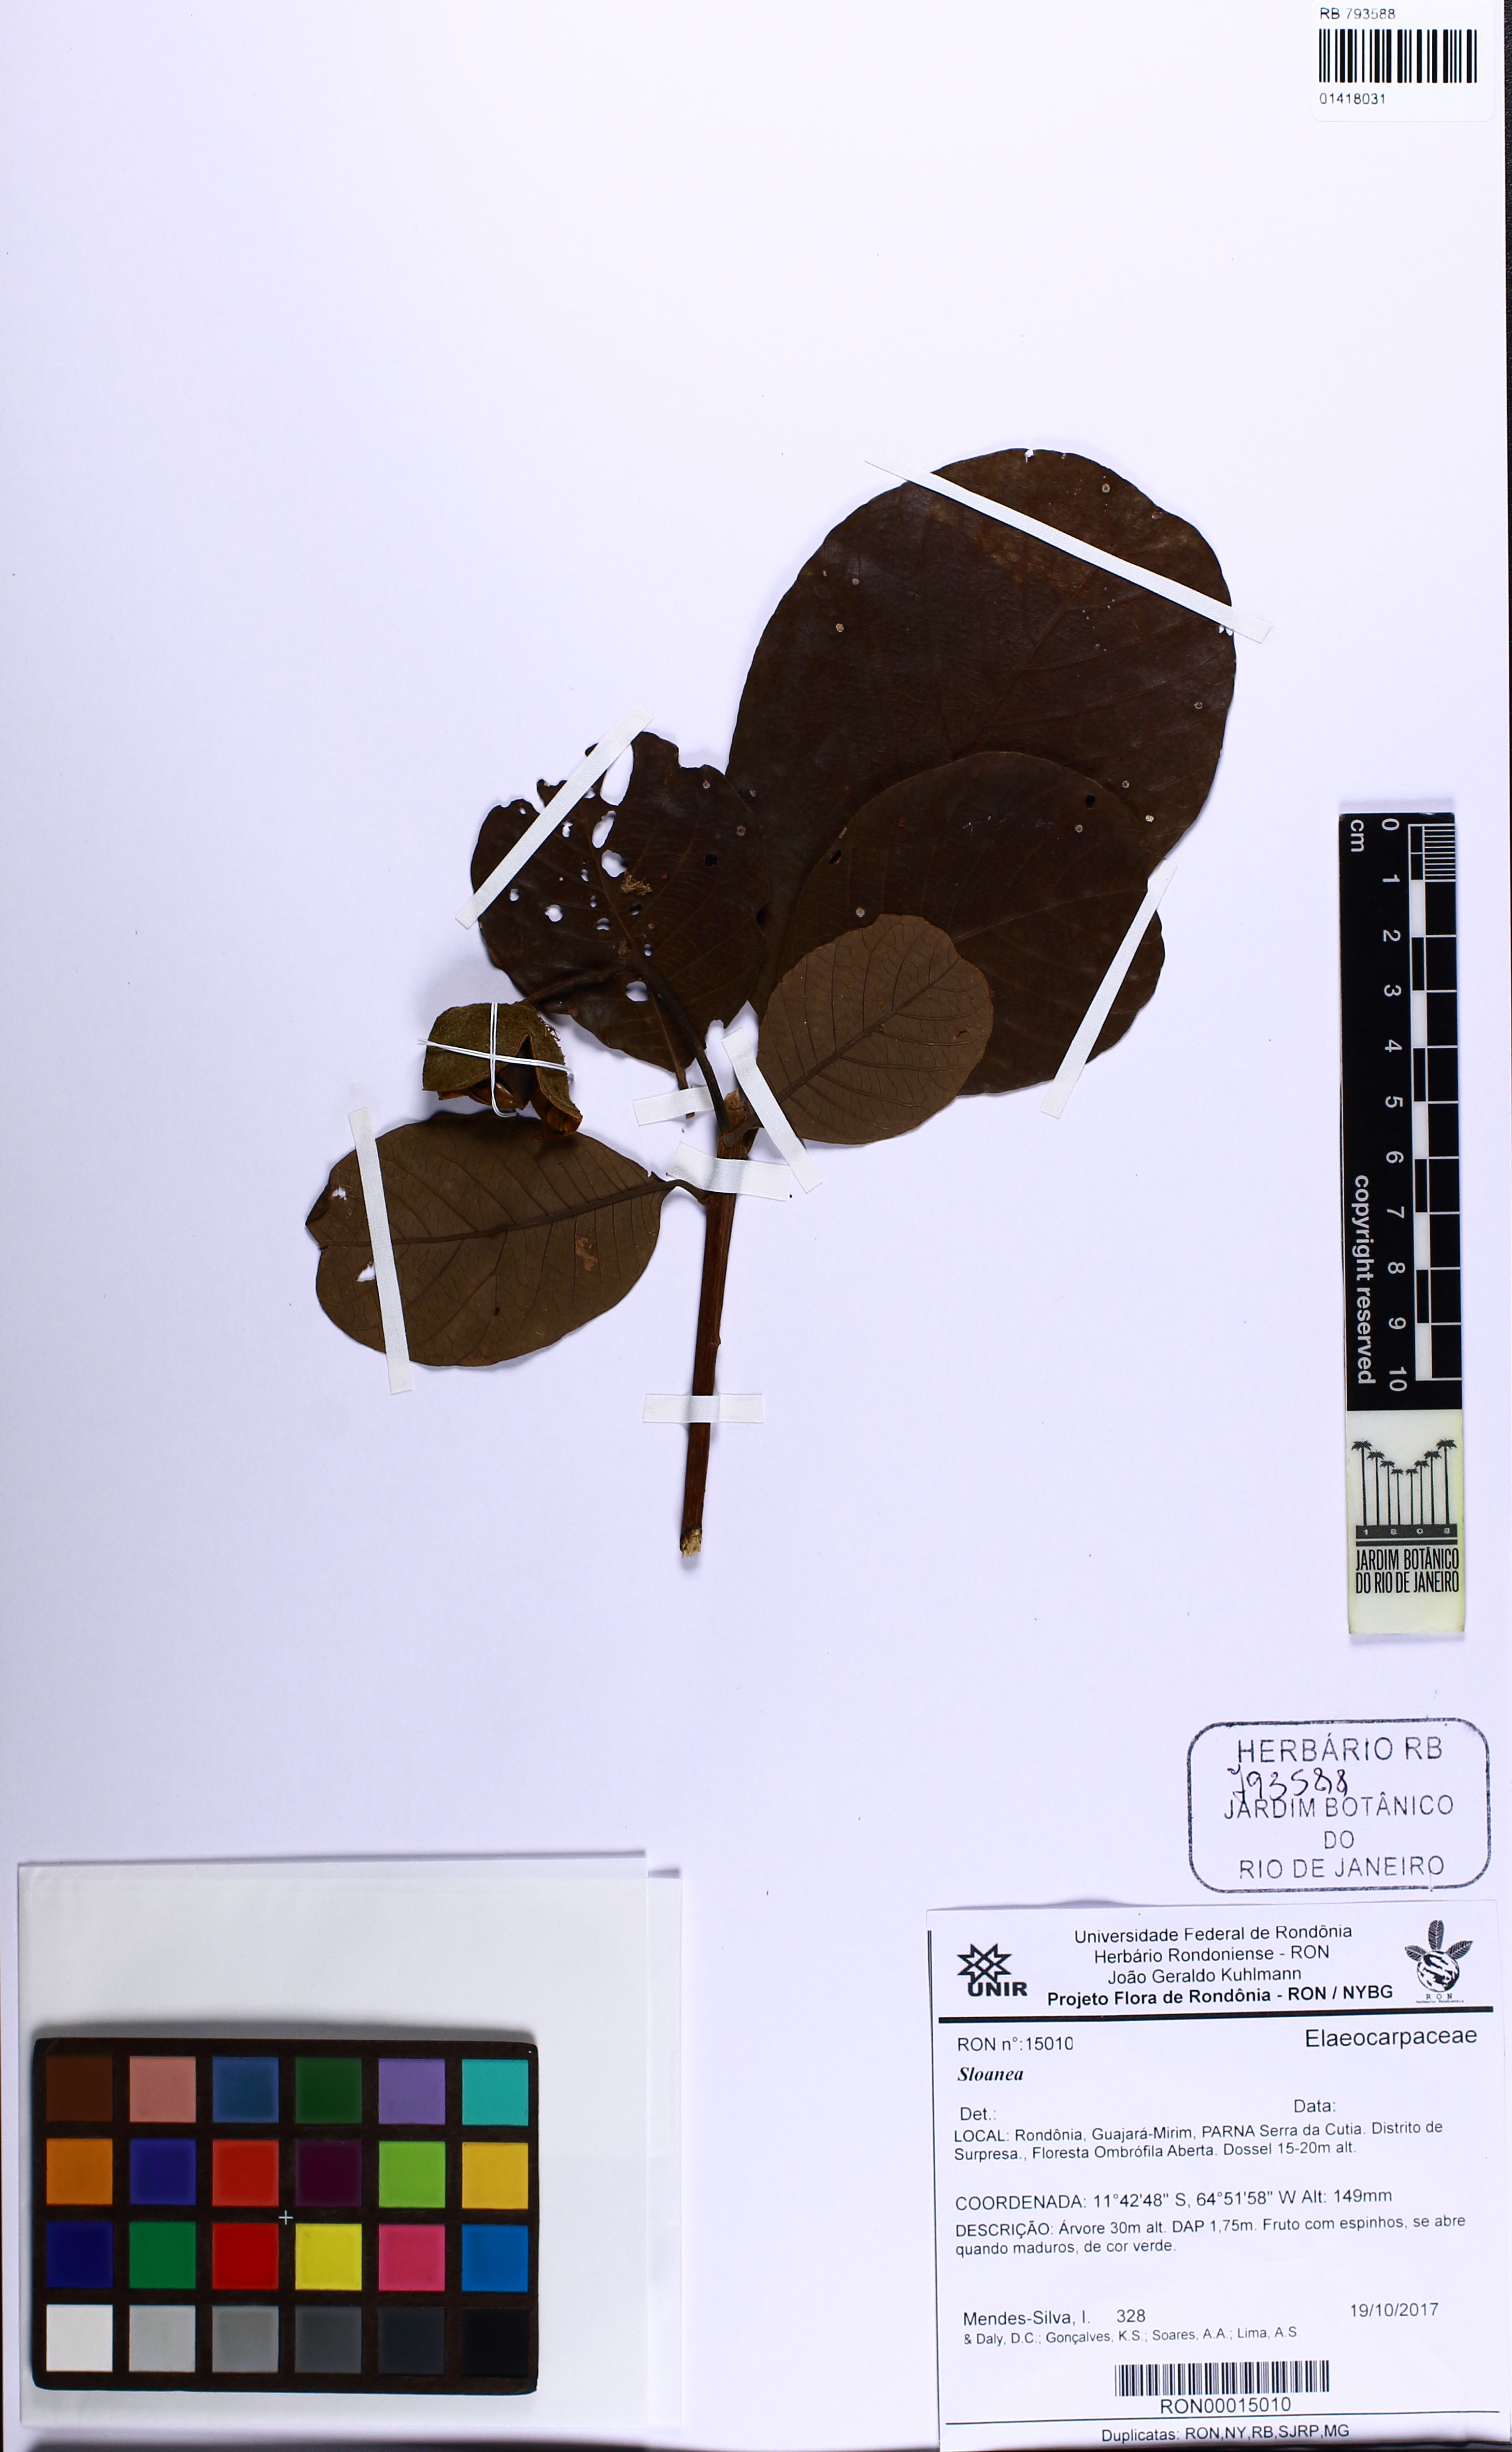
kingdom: Plantae
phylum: Tracheophyta
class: Magnoliopsida
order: Oxalidales
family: Elaeocarpaceae
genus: Sloanea
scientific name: Sloanea
